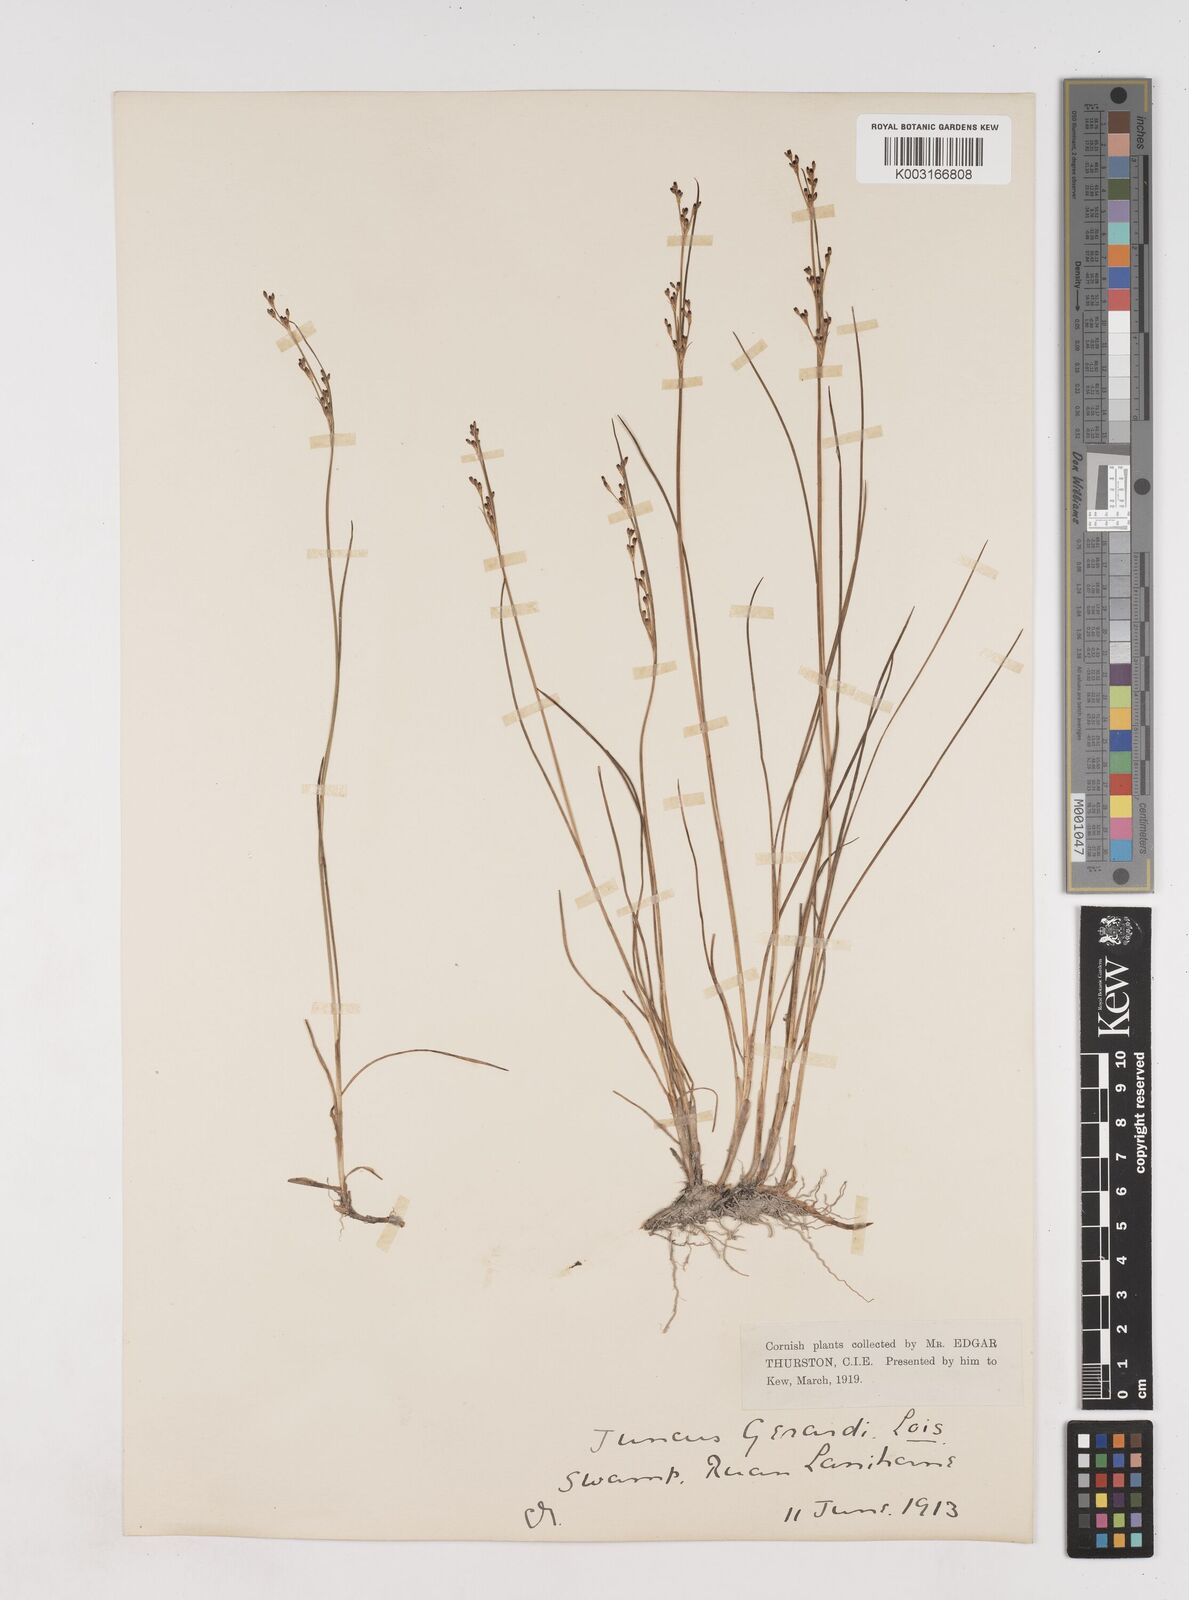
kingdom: Plantae
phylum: Tracheophyta
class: Liliopsida
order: Poales
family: Juncaceae
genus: Juncus
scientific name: Juncus gerardi
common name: Saltmarsh rush
